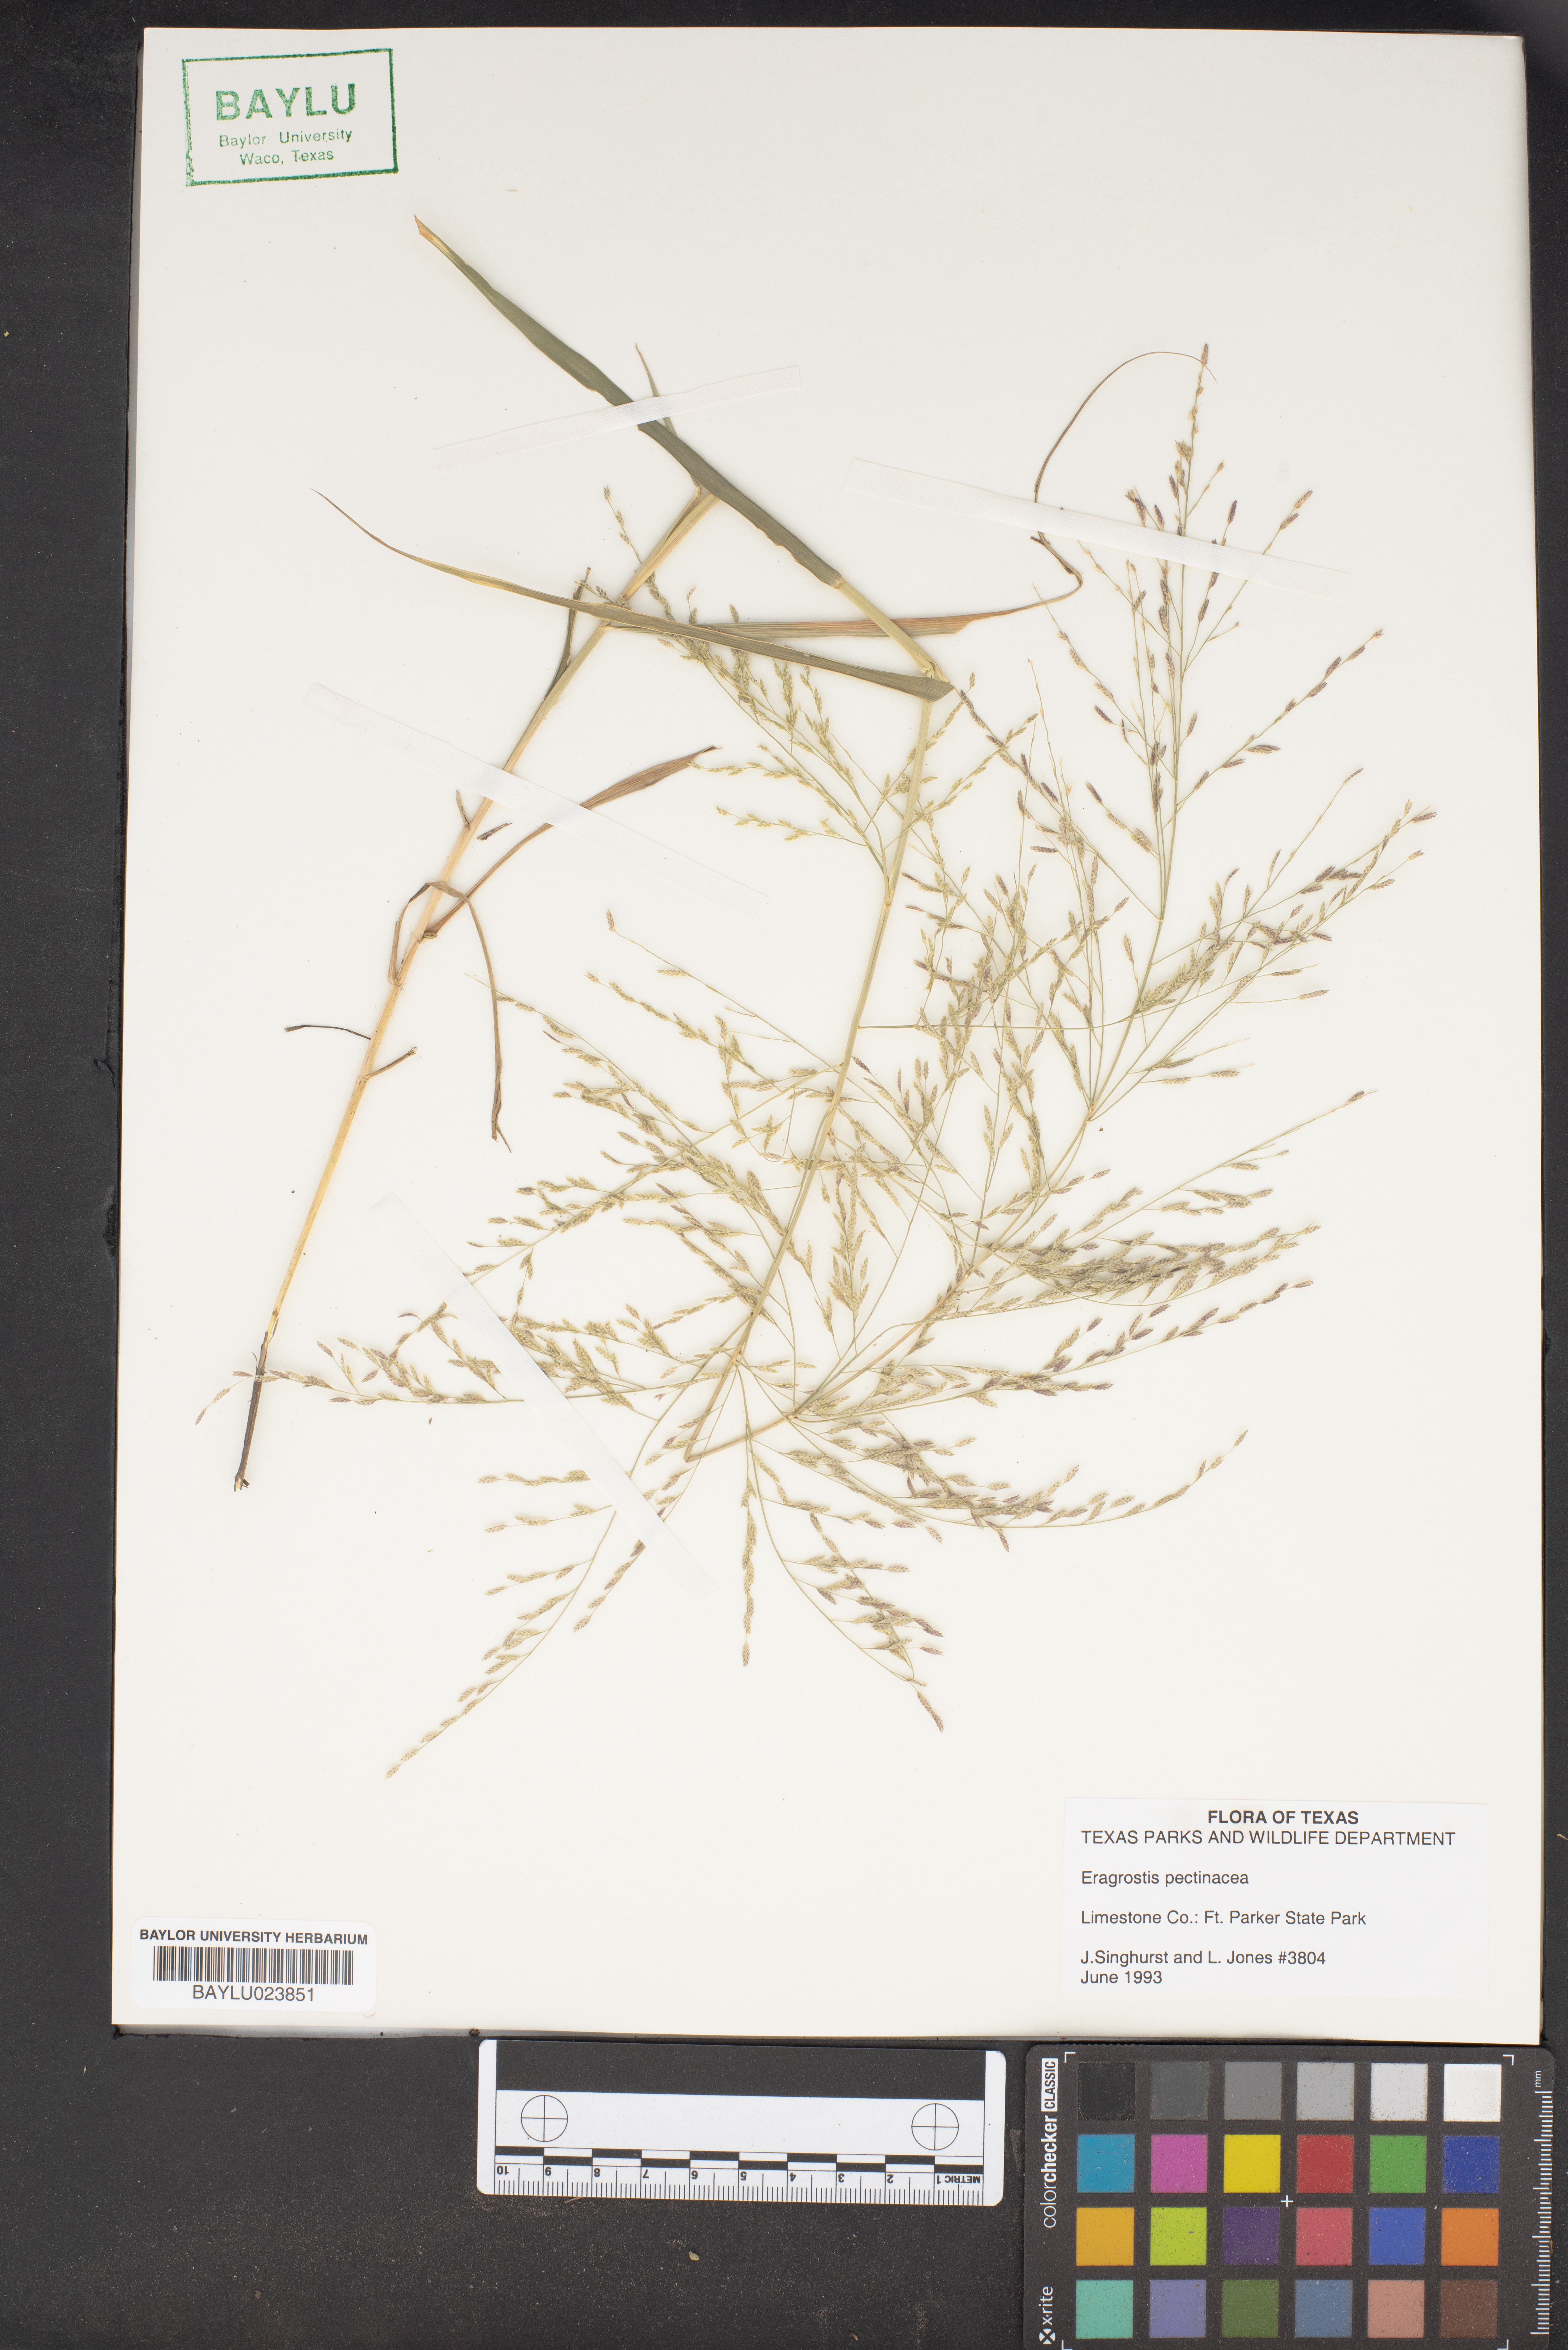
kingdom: Plantae
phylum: Tracheophyta
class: Liliopsida
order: Poales
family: Poaceae
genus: Eragrostis
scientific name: Eragrostis pectinacea
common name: Tufted lovegrass
